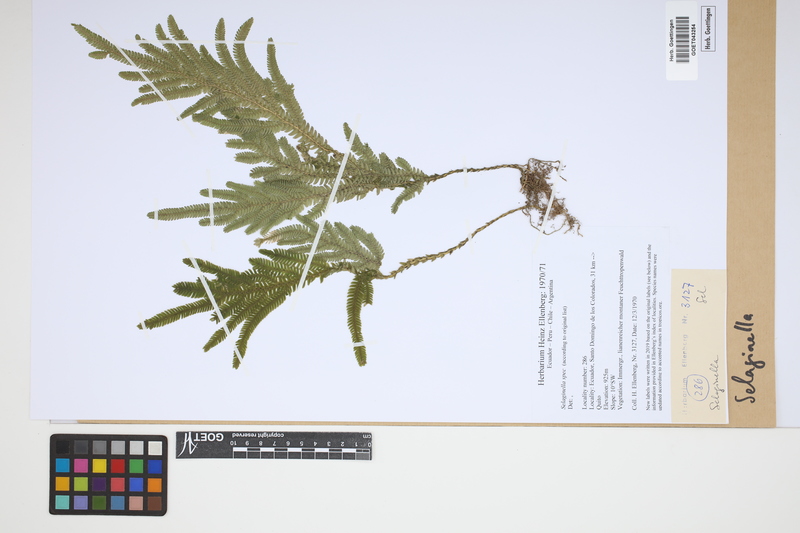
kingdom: Plantae
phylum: Tracheophyta
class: Lycopodiopsida
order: Selaginellales
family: Selaginellaceae
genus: Selaginella
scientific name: Selaginella
